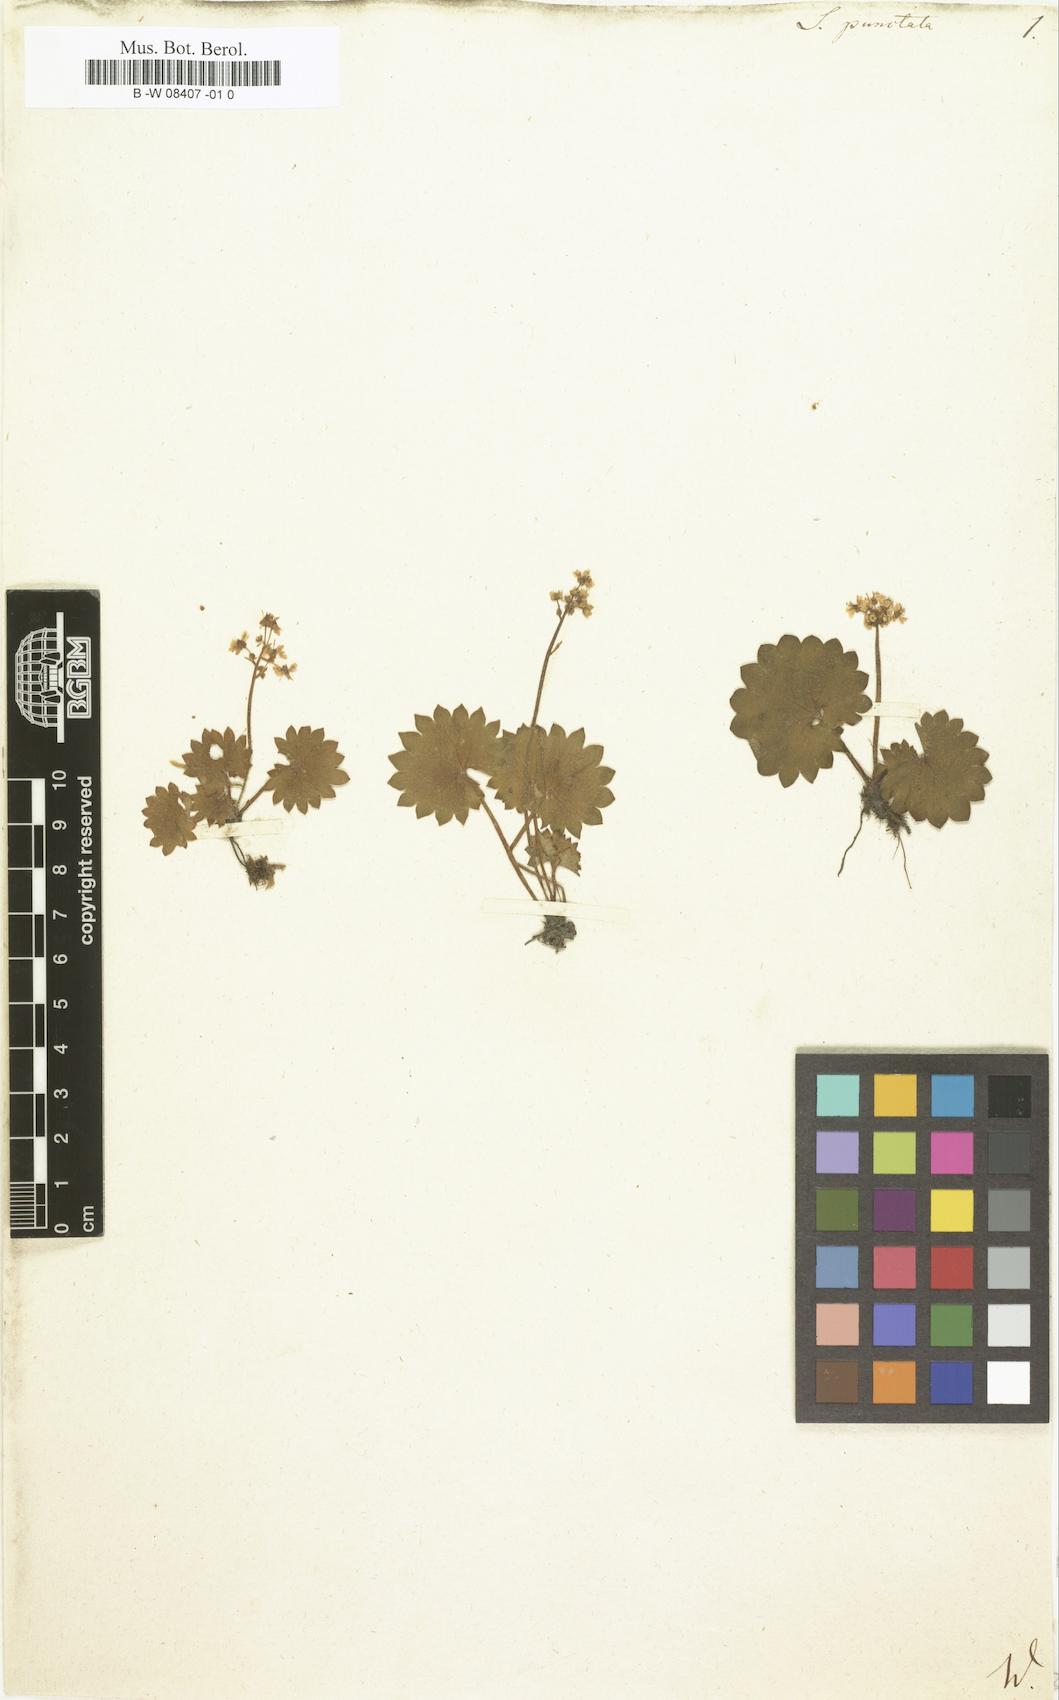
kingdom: Plantae
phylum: Tracheophyta
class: Magnoliopsida
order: Saxifragales
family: Saxifragaceae
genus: Micranthes
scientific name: Micranthes punctata
